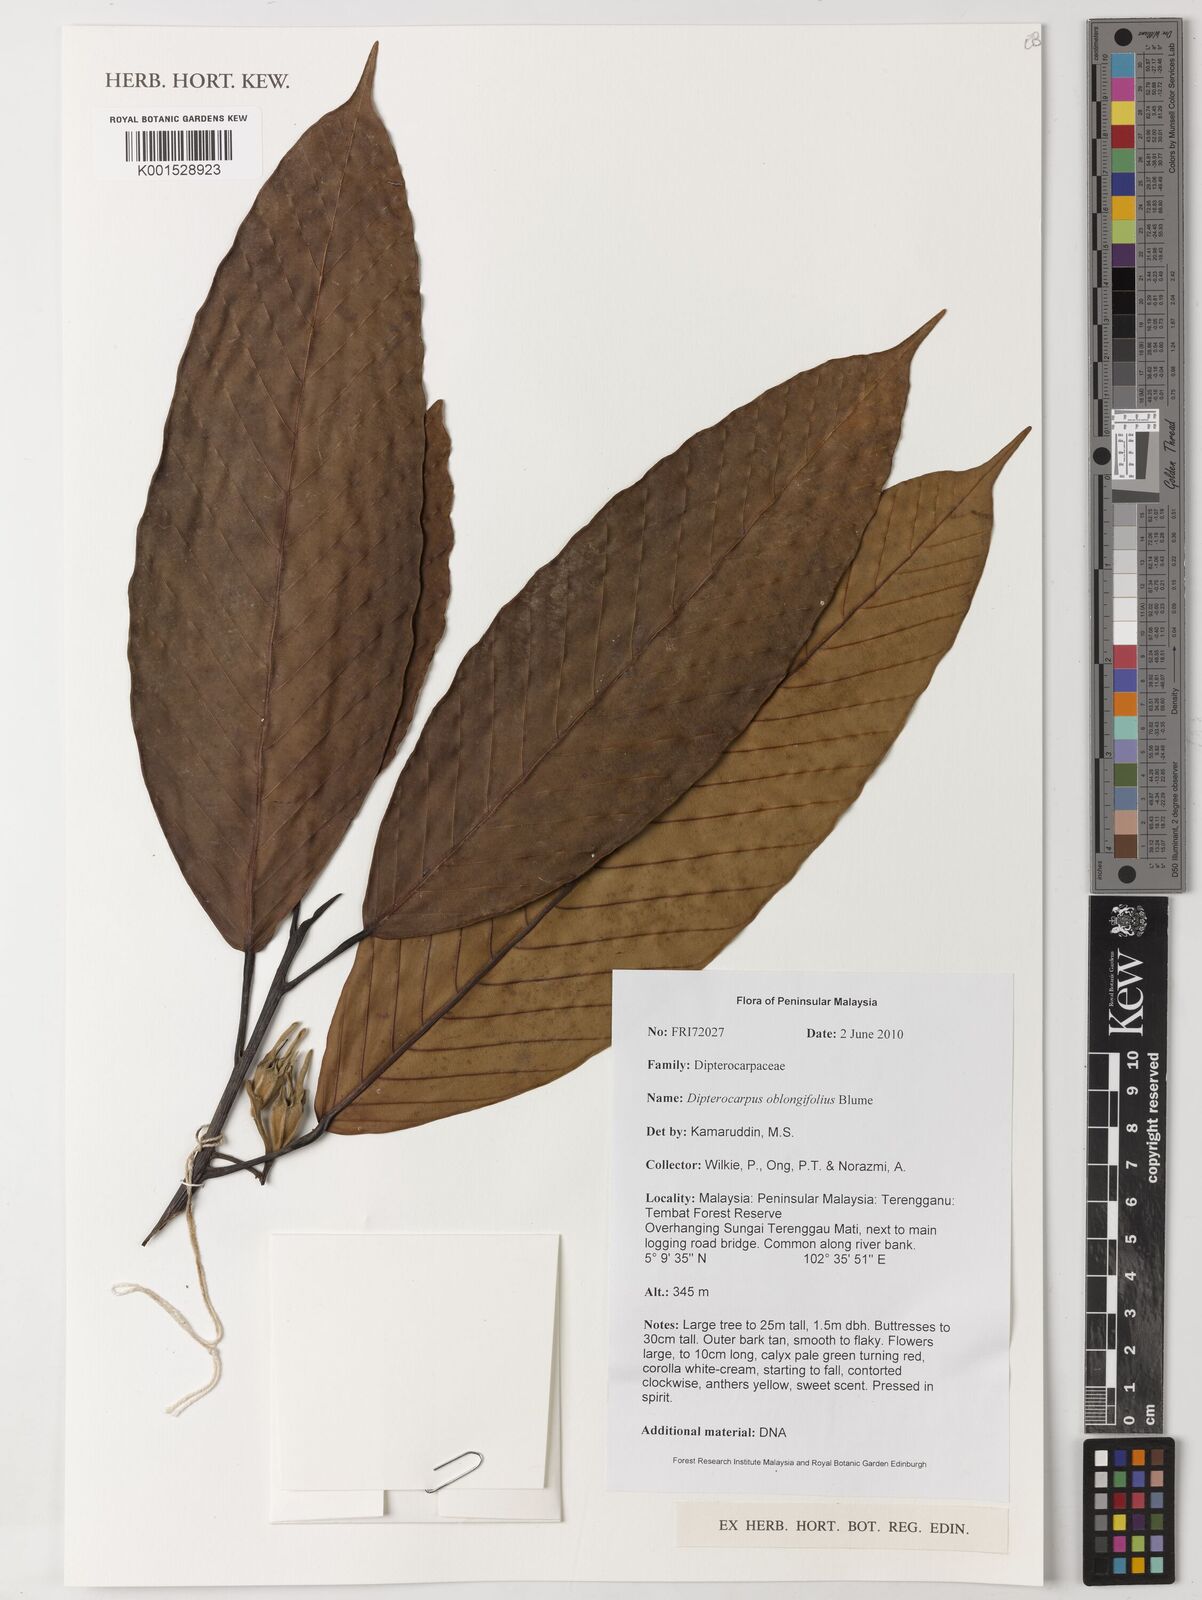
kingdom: Plantae
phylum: Tracheophyta
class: Magnoliopsida
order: Malvales
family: Dipterocarpaceae
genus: Dipterocarpus
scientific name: Dipterocarpus oblongifolius
